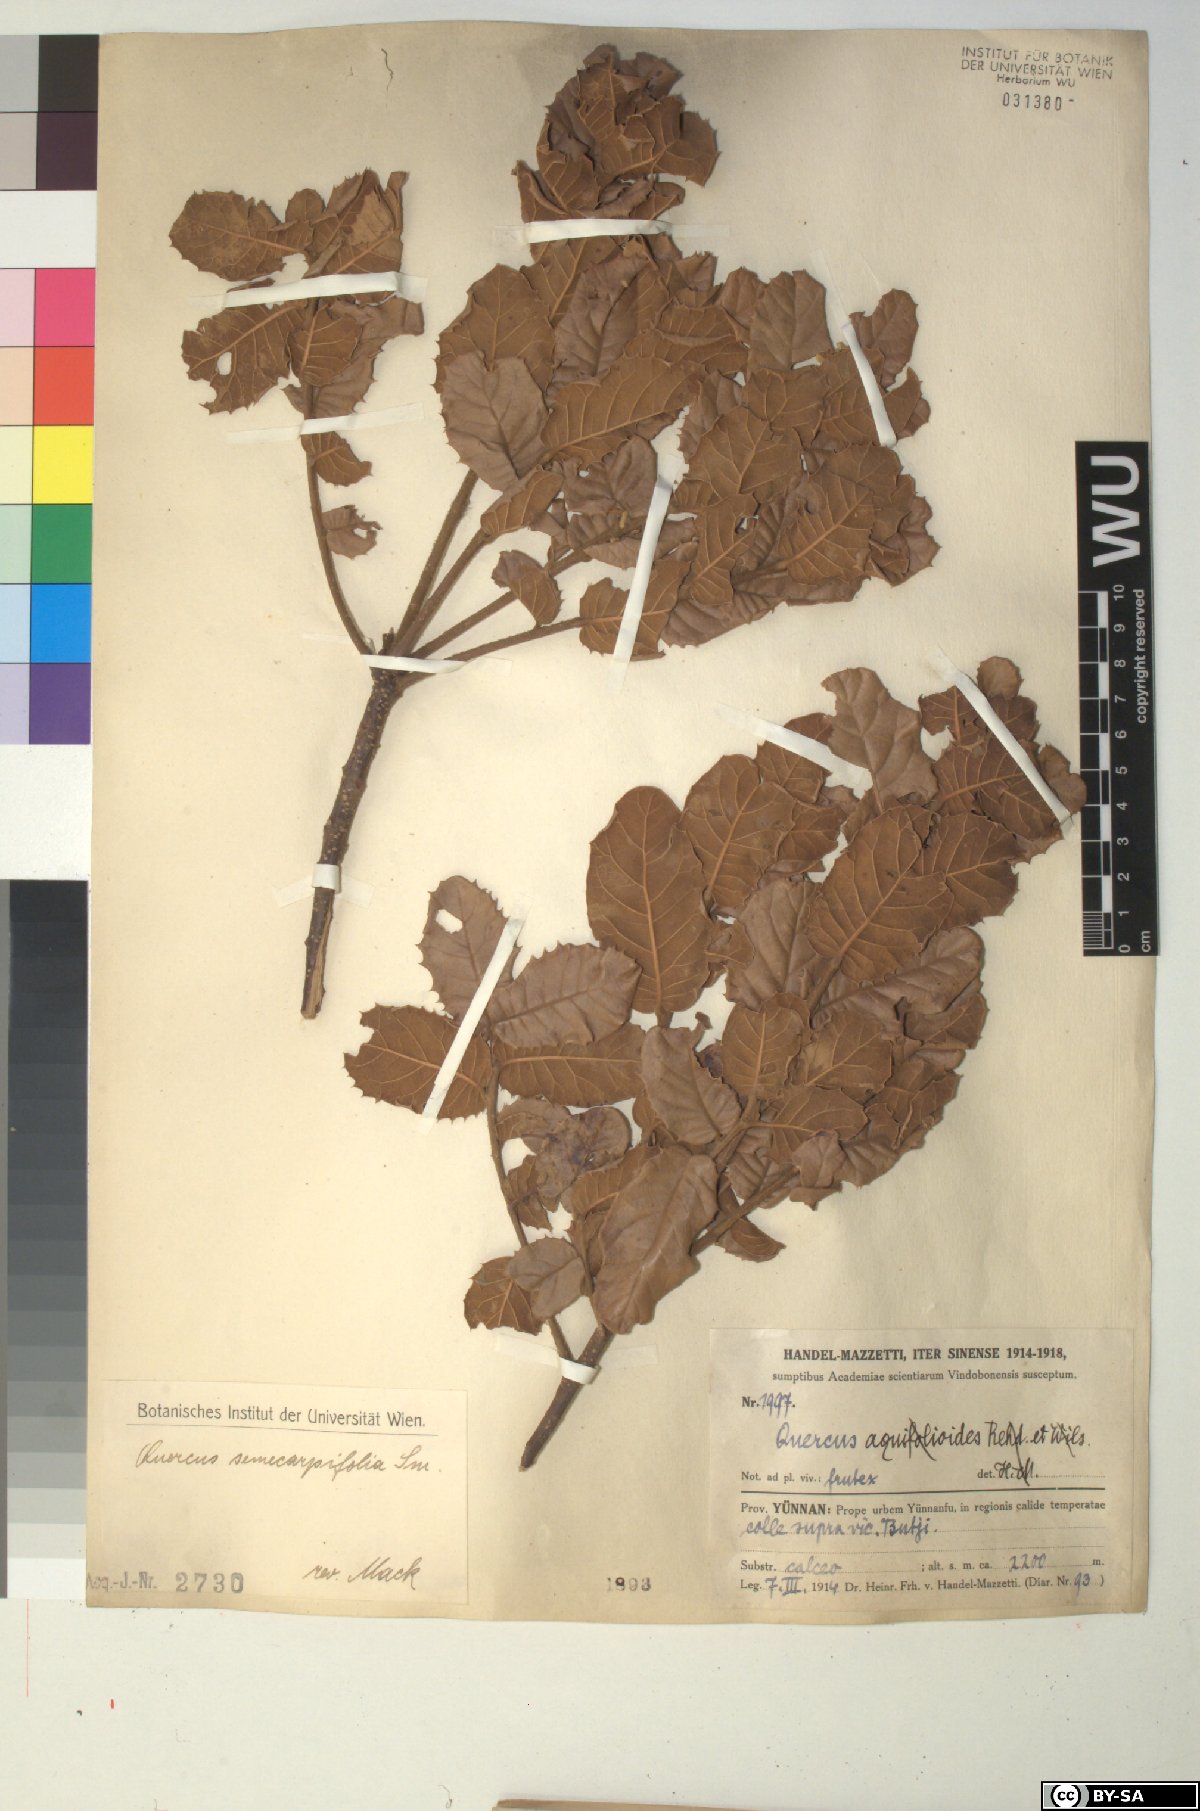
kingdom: Plantae
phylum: Tracheophyta
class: Magnoliopsida
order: Fagales
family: Fagaceae
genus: Quercus
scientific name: Quercus semecarpifolia
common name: Brown oak
